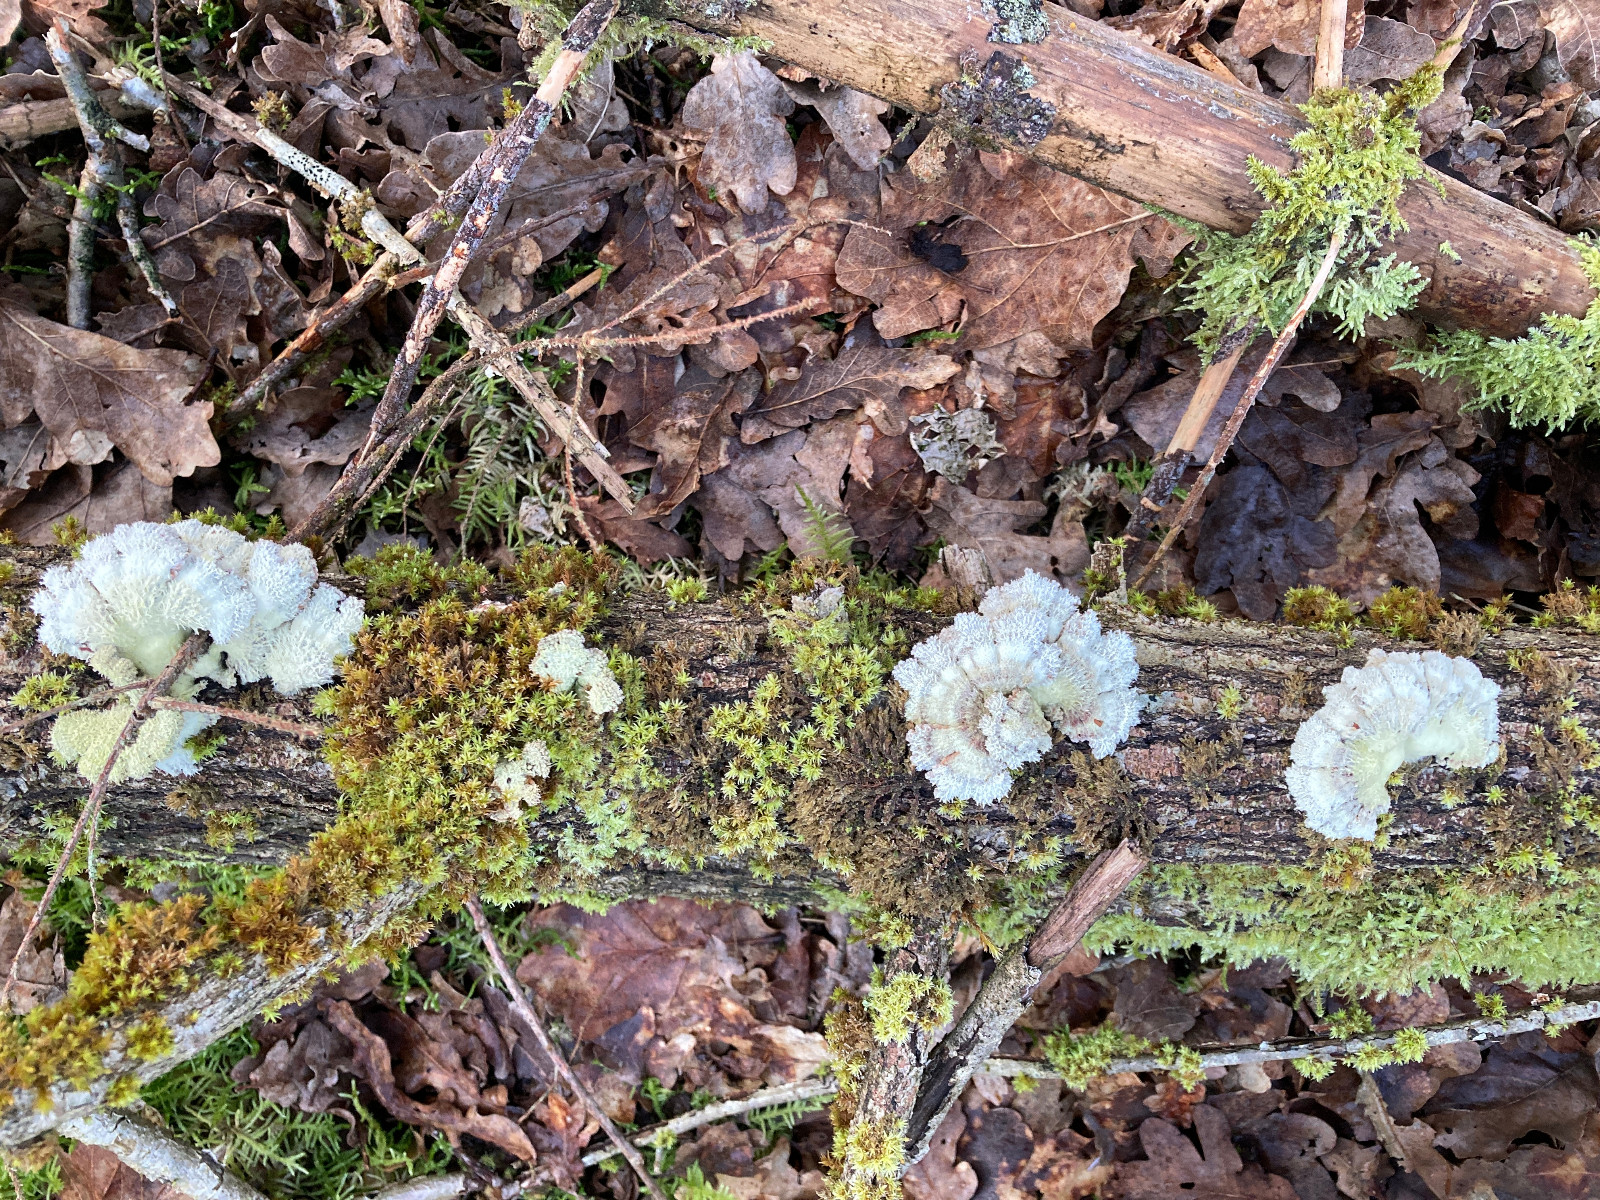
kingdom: Fungi
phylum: Basidiomycota
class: Agaricomycetes
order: Agaricales
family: Schizophyllaceae
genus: Schizophyllum
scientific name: Schizophyllum commune
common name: kløvblad
